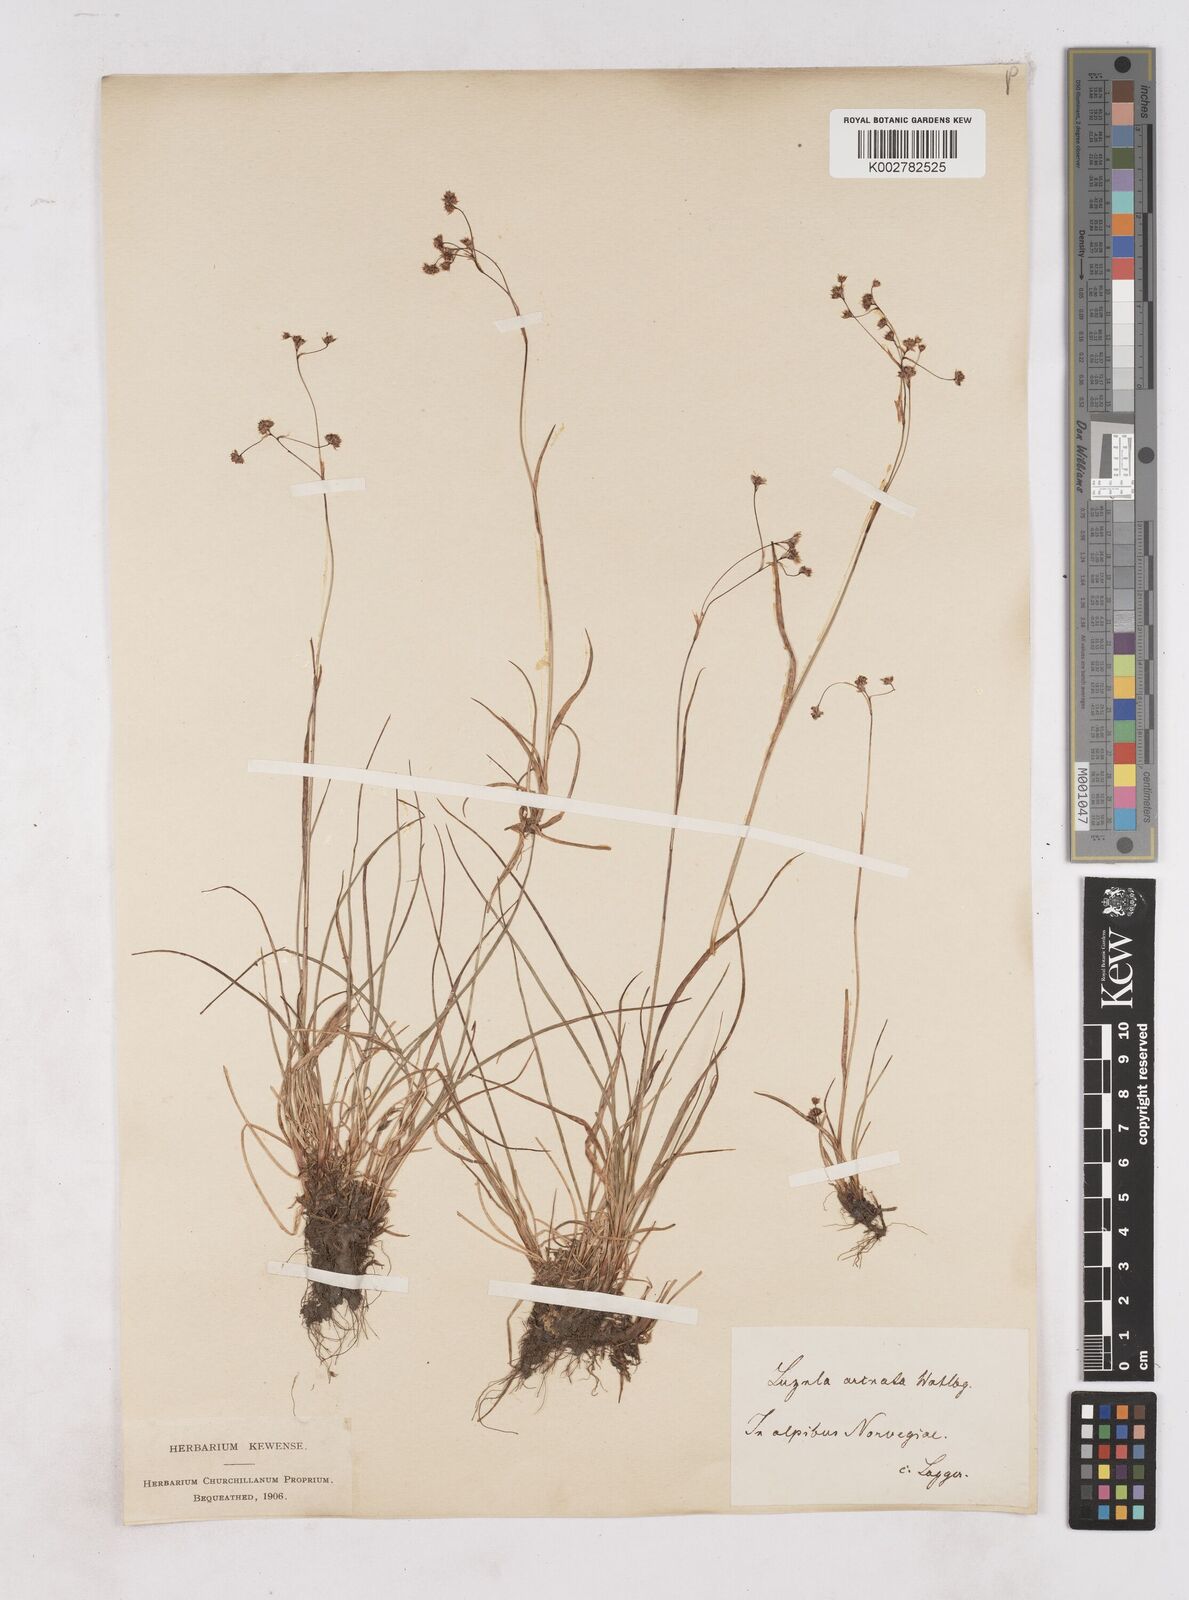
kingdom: Plantae
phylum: Tracheophyta
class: Liliopsida
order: Poales
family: Juncaceae
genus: Luzula
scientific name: Luzula arcuata
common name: Curved wood-rush
